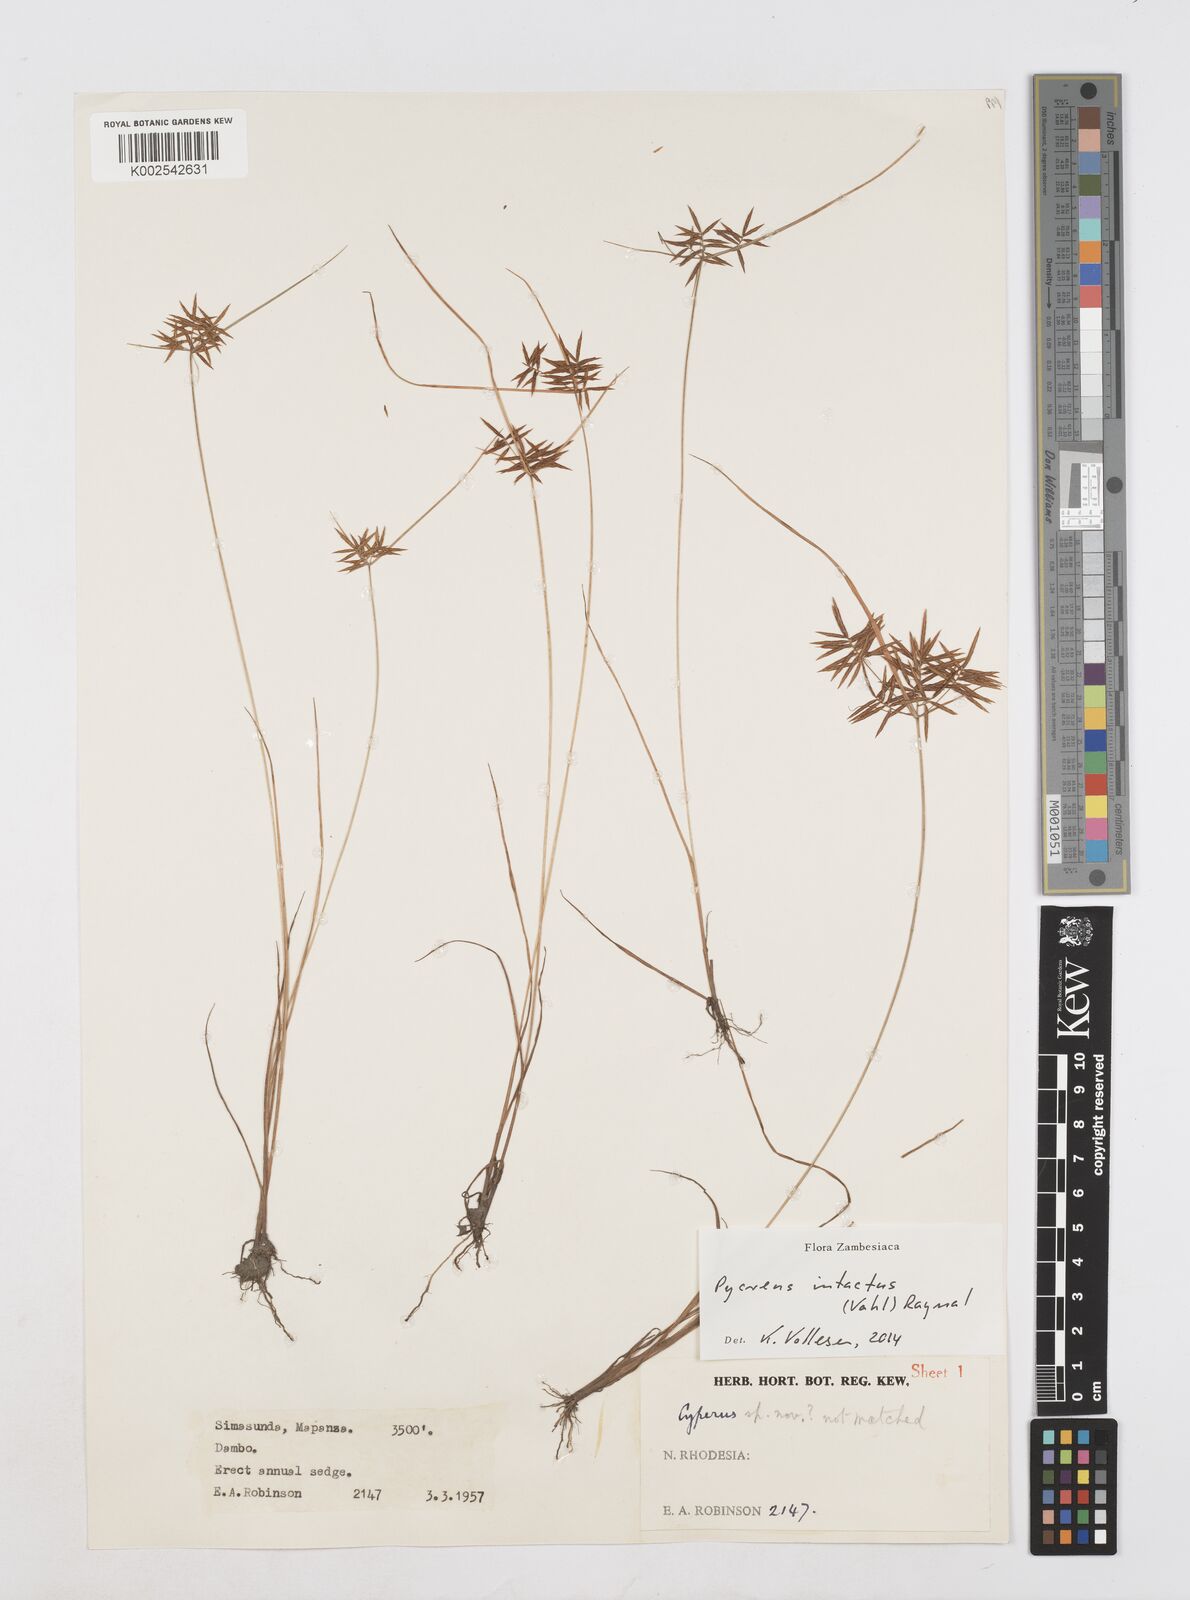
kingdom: Plantae
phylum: Tracheophyta
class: Liliopsida
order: Poales
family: Cyperaceae
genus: Cyperus
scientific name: Cyperus intactus
